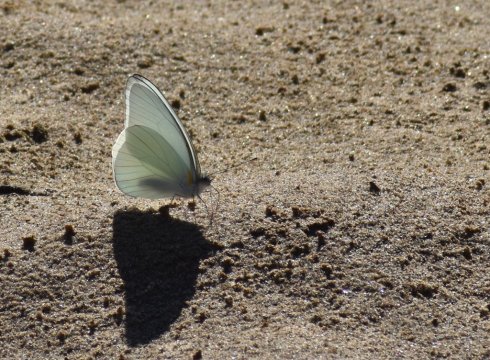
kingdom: Animalia
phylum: Arthropoda
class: Insecta
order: Lepidoptera
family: Pieridae
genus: Glutophrissa
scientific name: Glutophrissa drusilla
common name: Florida White
